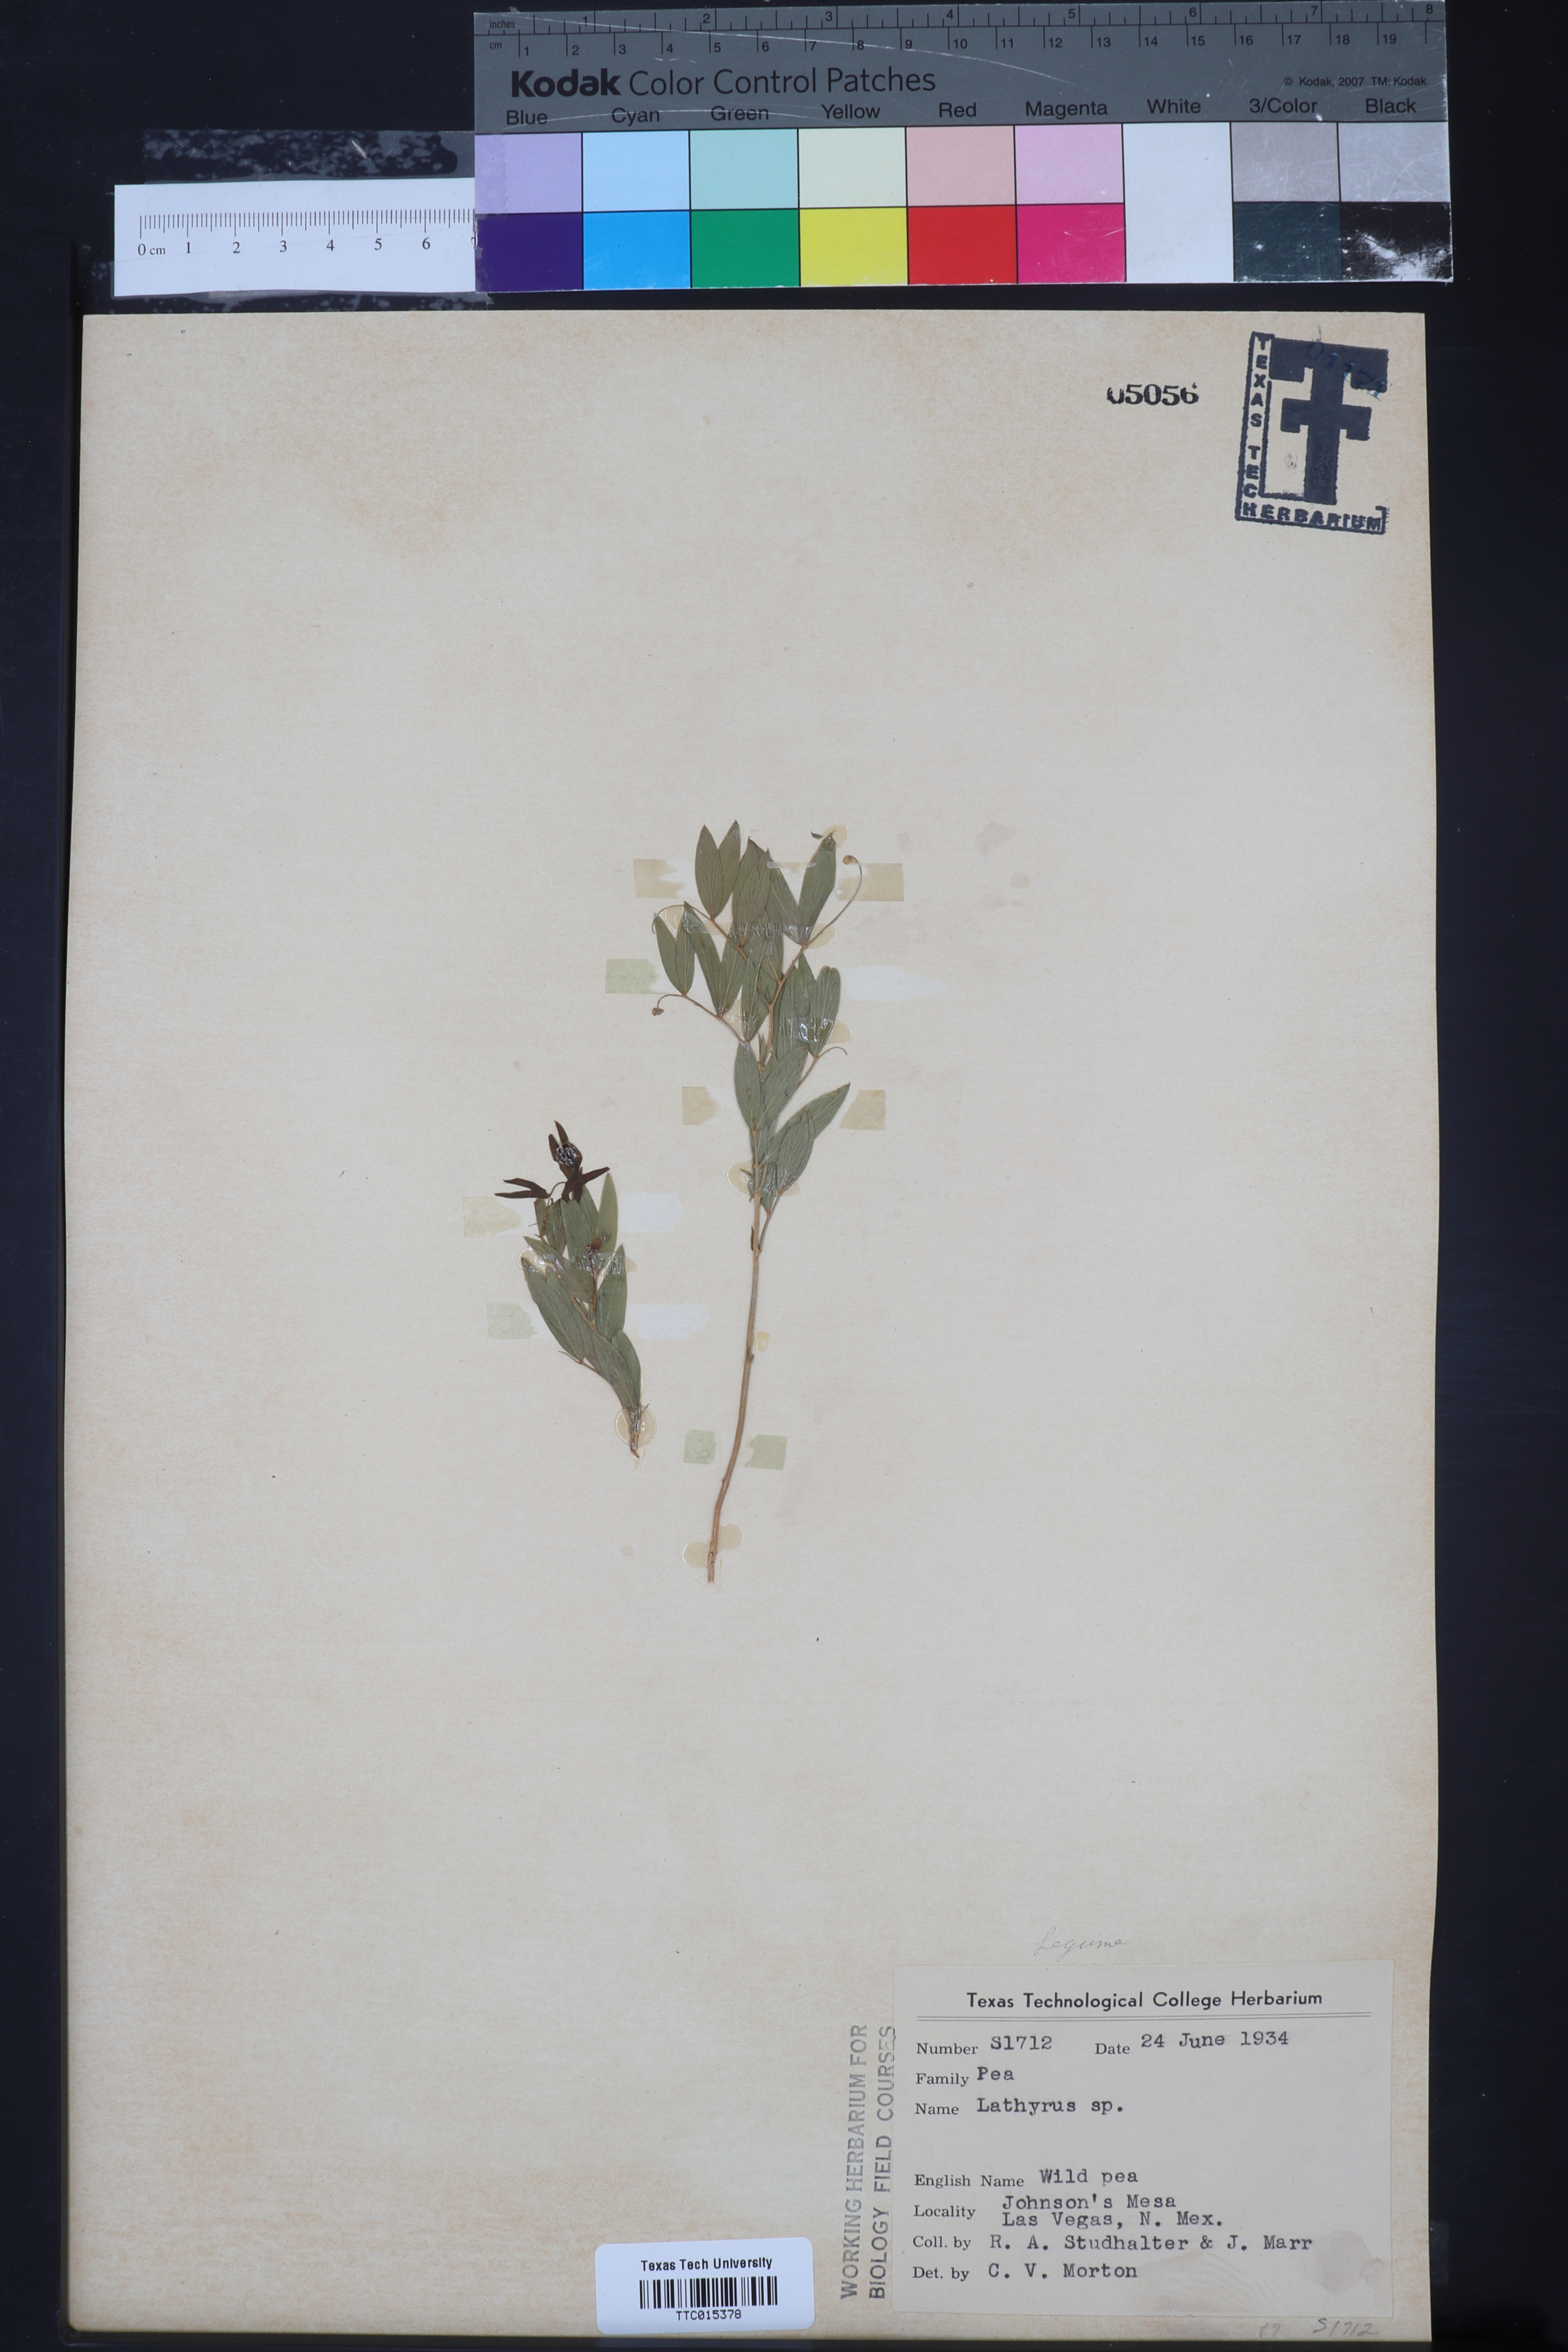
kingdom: Plantae
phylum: Tracheophyta
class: Magnoliopsida
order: Fabales
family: Fabaceae
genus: Lathyrus
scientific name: Lathyrus
